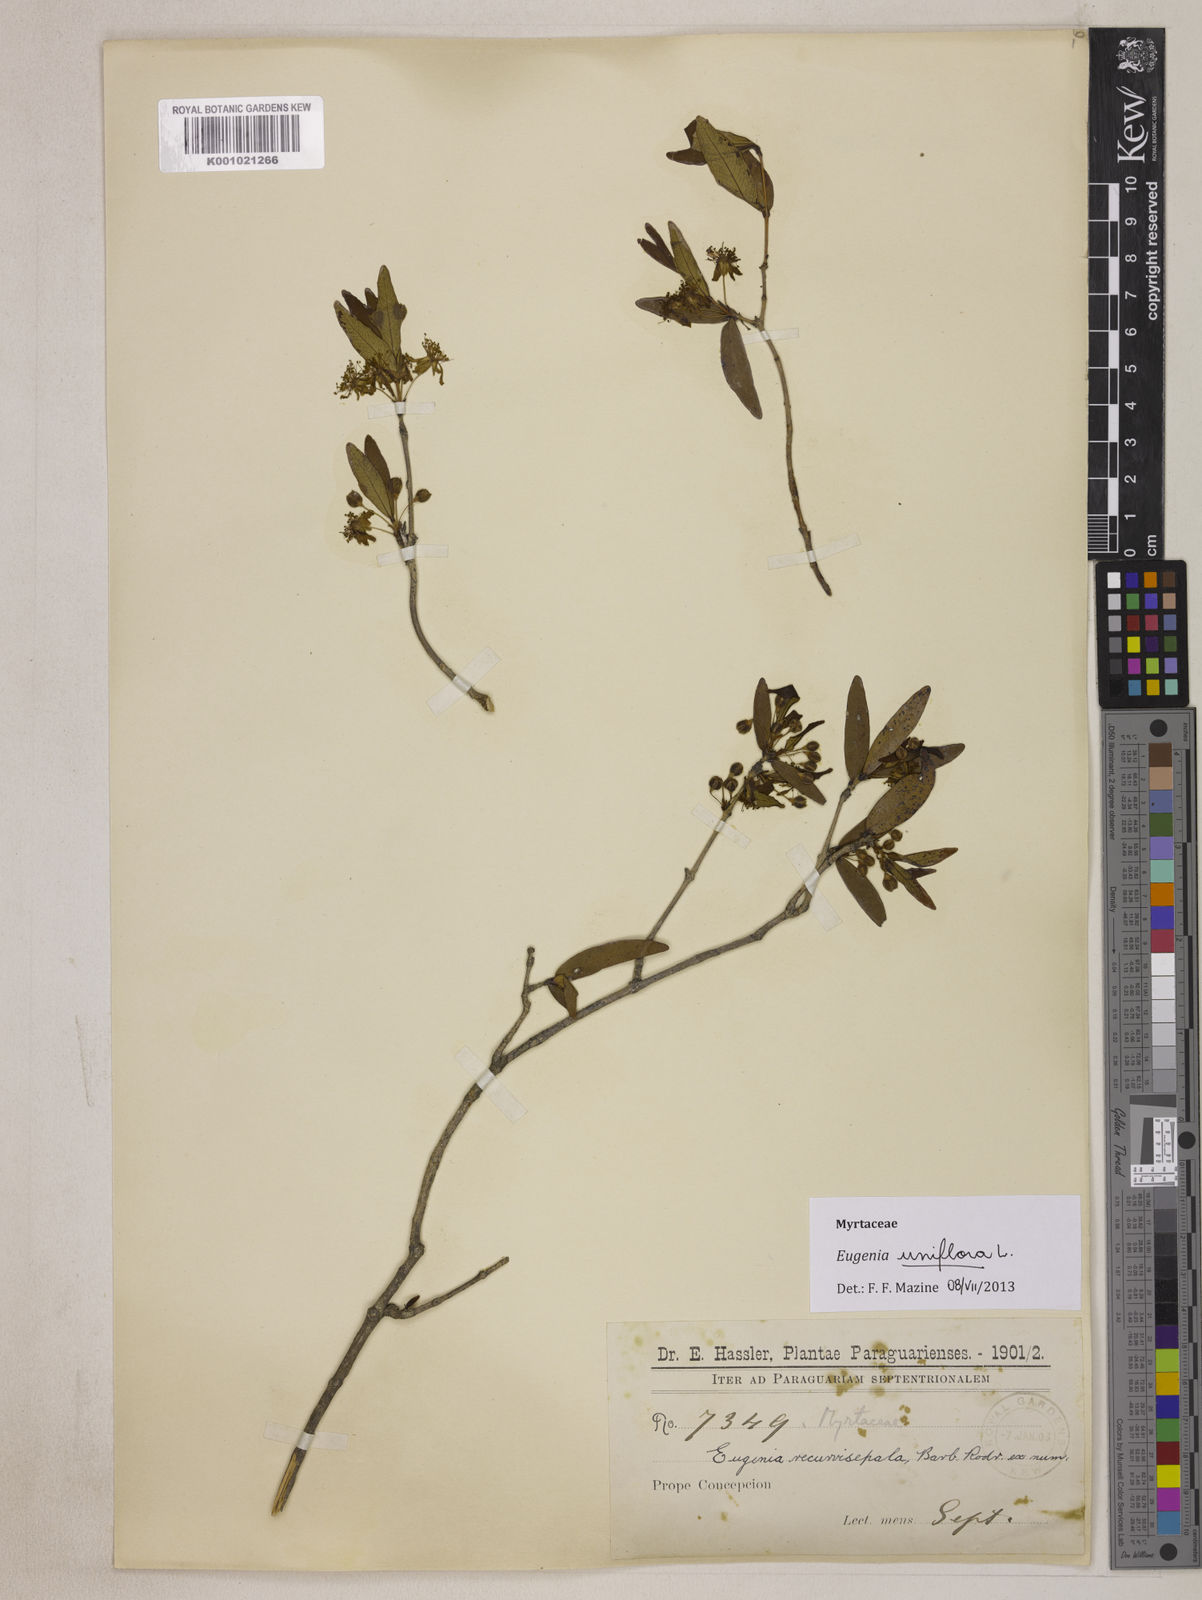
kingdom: Plantae
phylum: Tracheophyta
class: Magnoliopsida
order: Myrtales
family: Myrtaceae
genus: Eugenia
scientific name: Eugenia uniflora
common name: Surinam cherry
